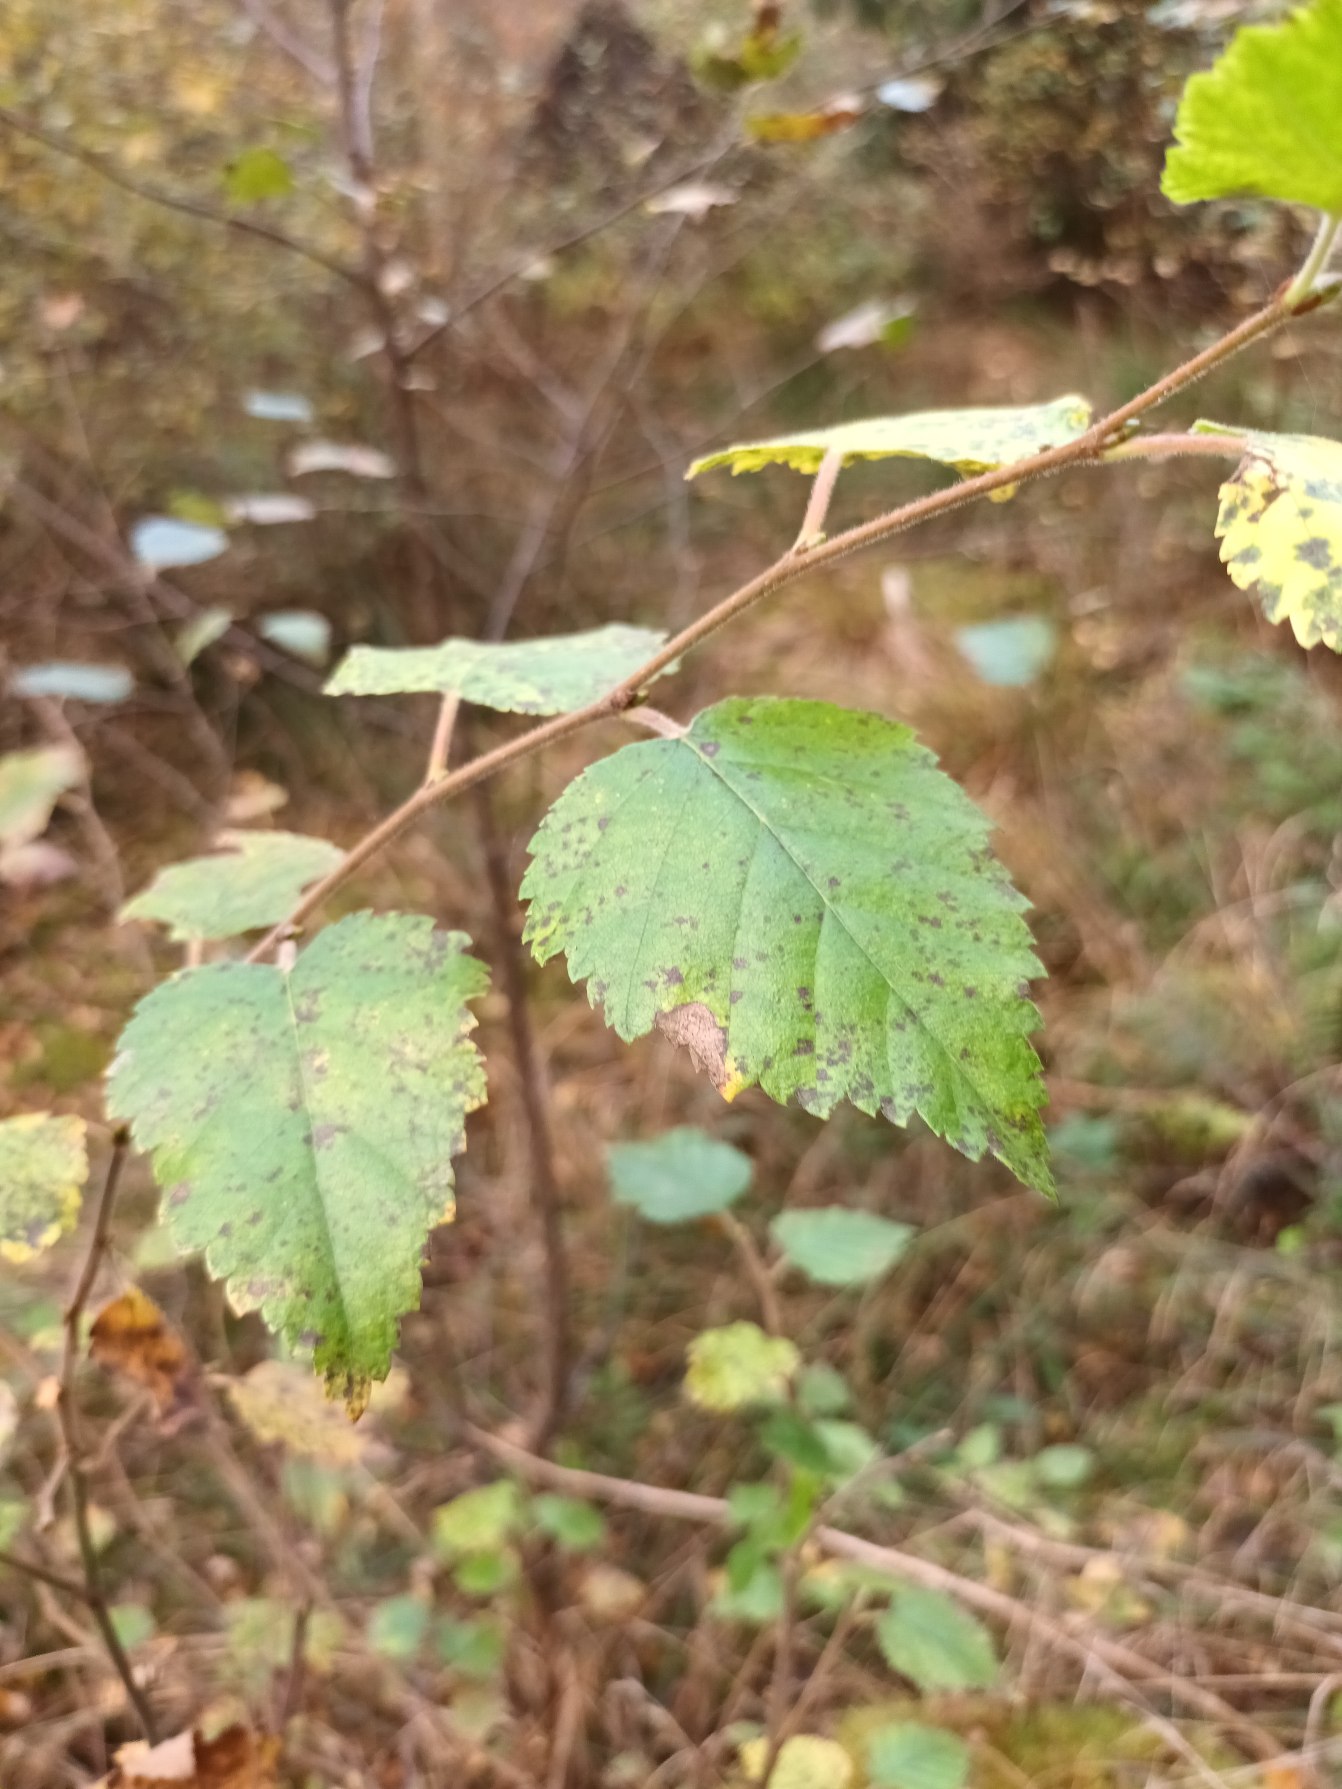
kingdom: Plantae
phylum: Tracheophyta
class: Magnoliopsida
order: Fagales
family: Betulaceae
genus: Betula
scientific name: Betula pubescens
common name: Dun-birk
